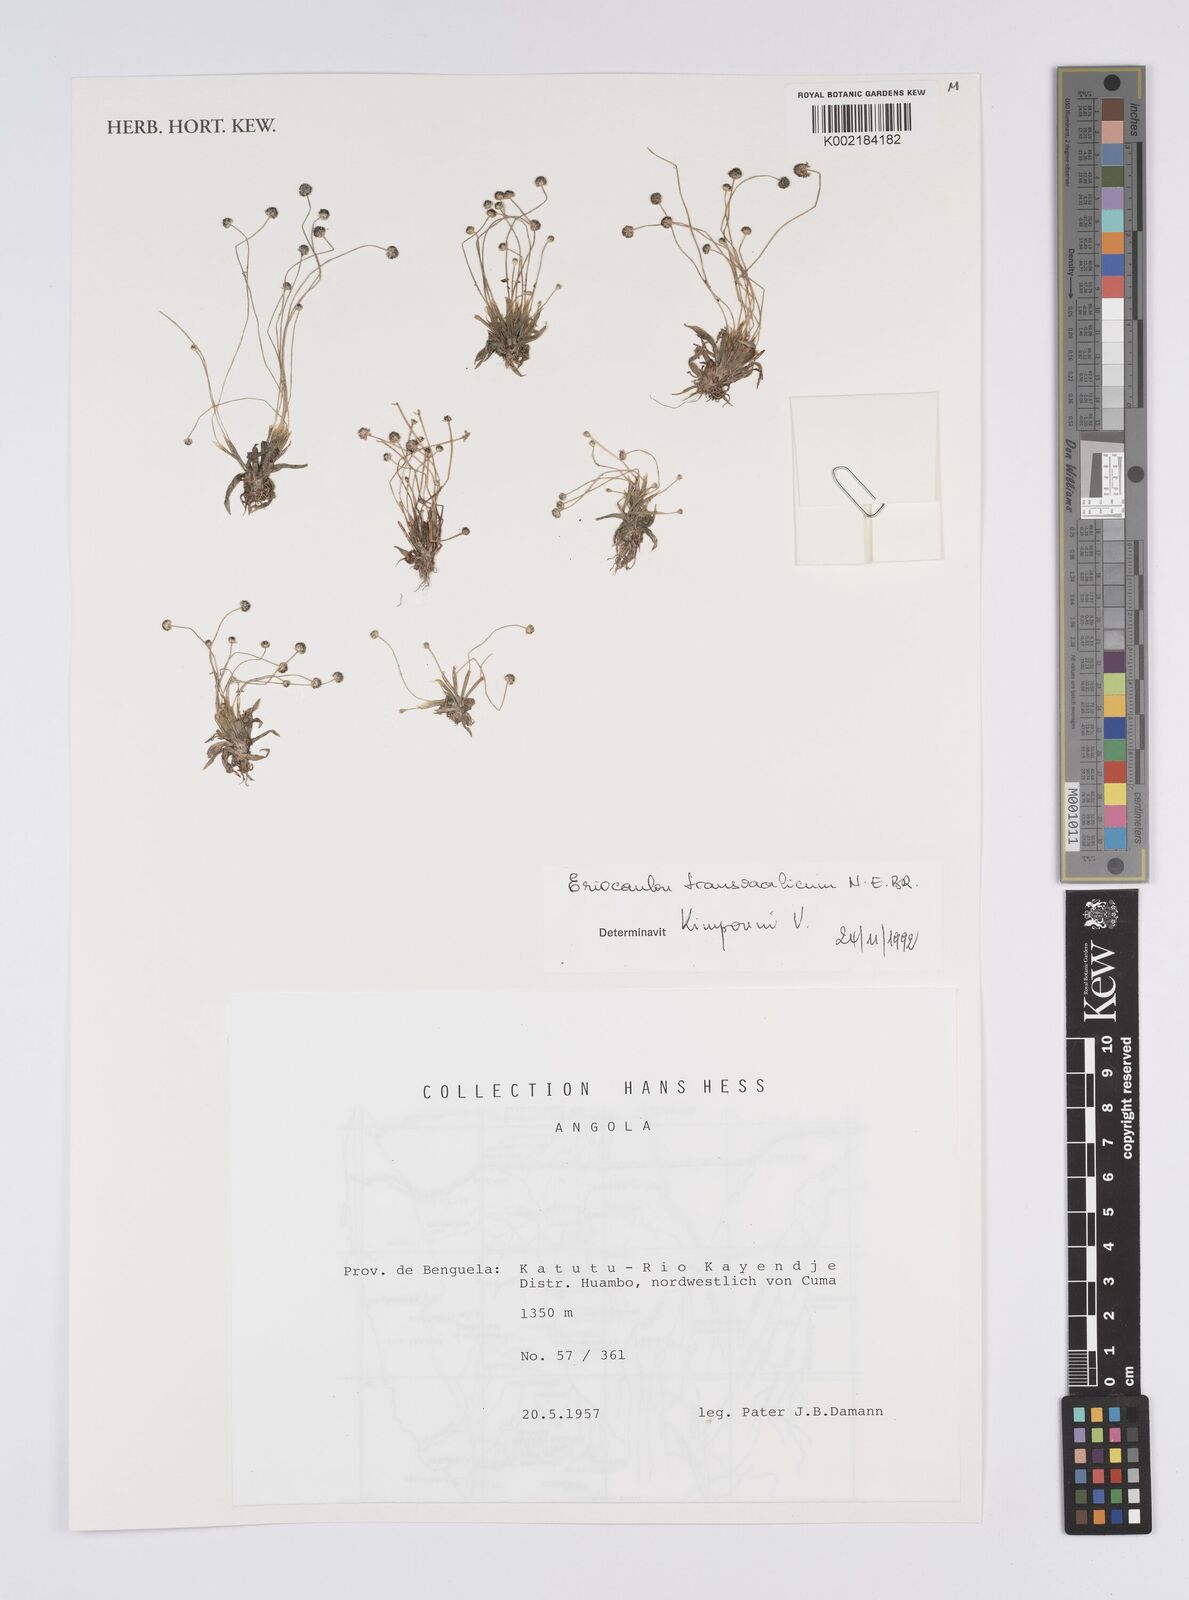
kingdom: Plantae
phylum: Tracheophyta
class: Liliopsida
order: Poales
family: Eriocaulaceae
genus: Eriocaulon
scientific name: Eriocaulon transvaalicum
